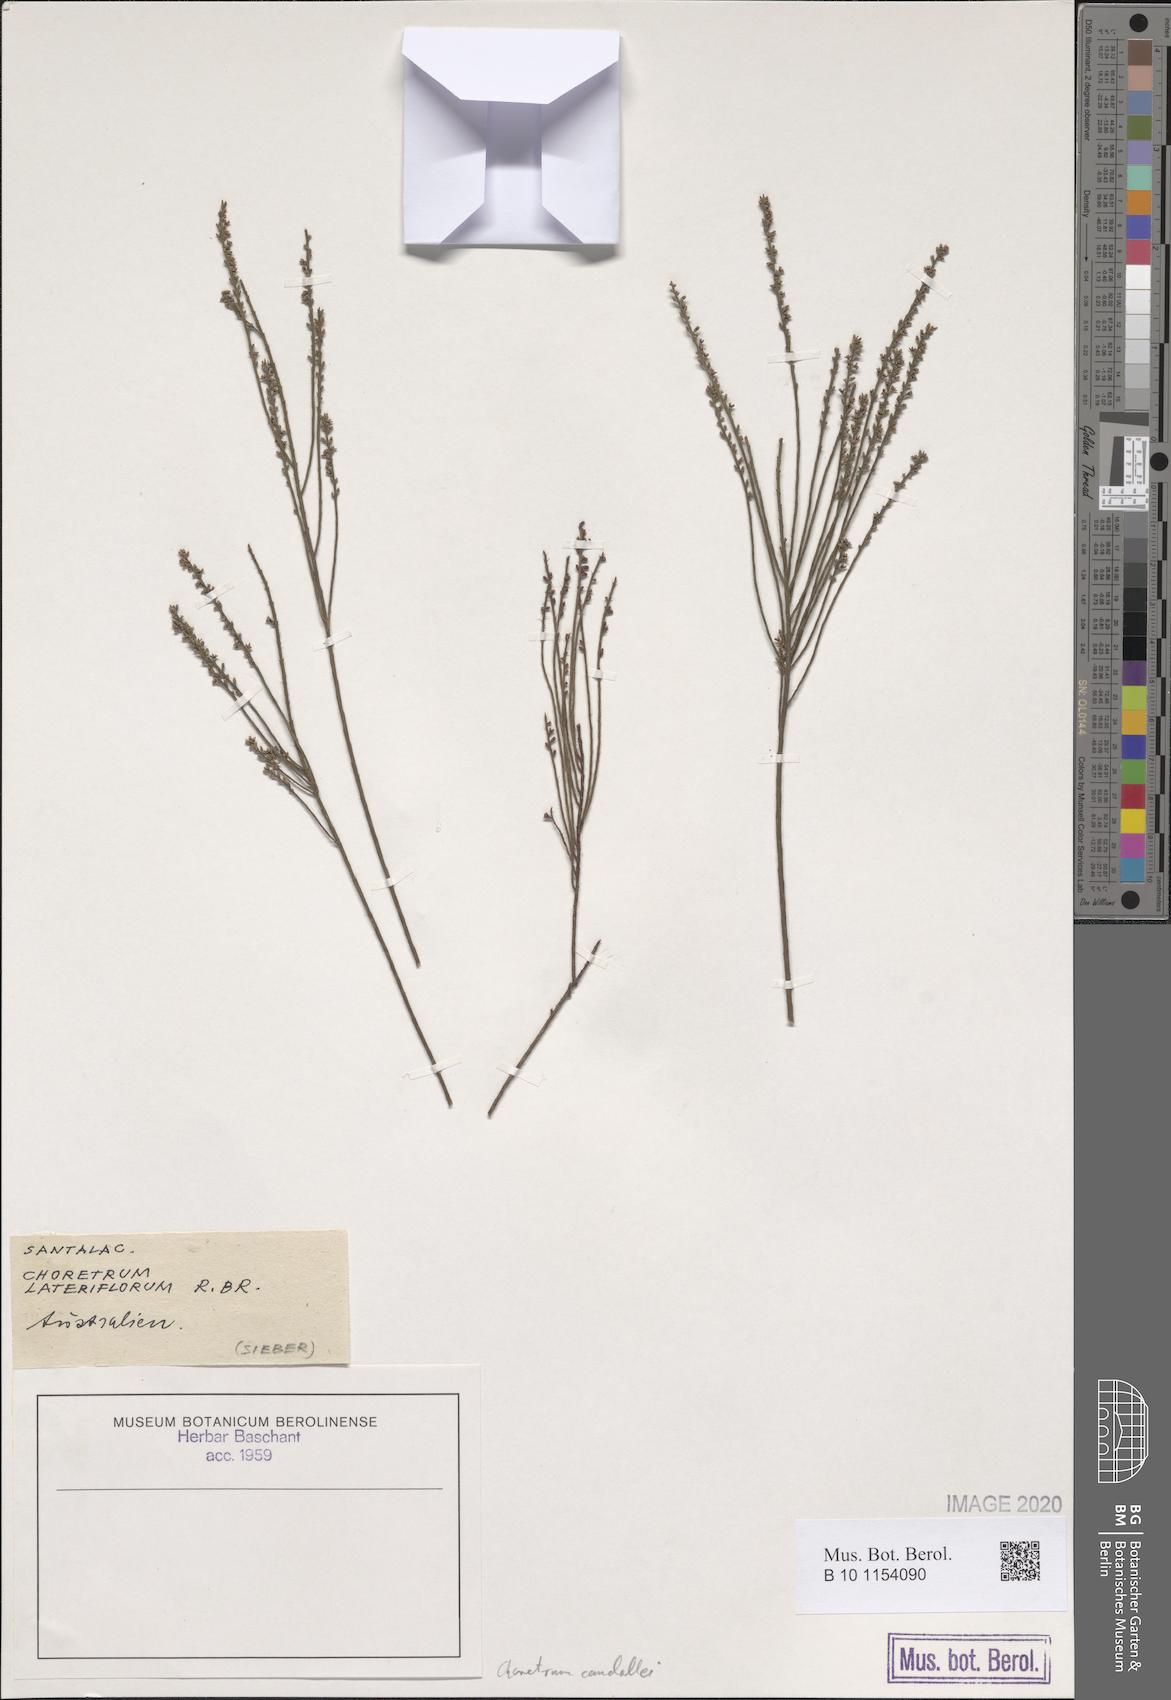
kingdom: Plantae
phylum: Tracheophyta
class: Magnoliopsida
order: Santalales
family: Amphorogynaceae
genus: Choretrum
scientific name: Choretrum candollei
